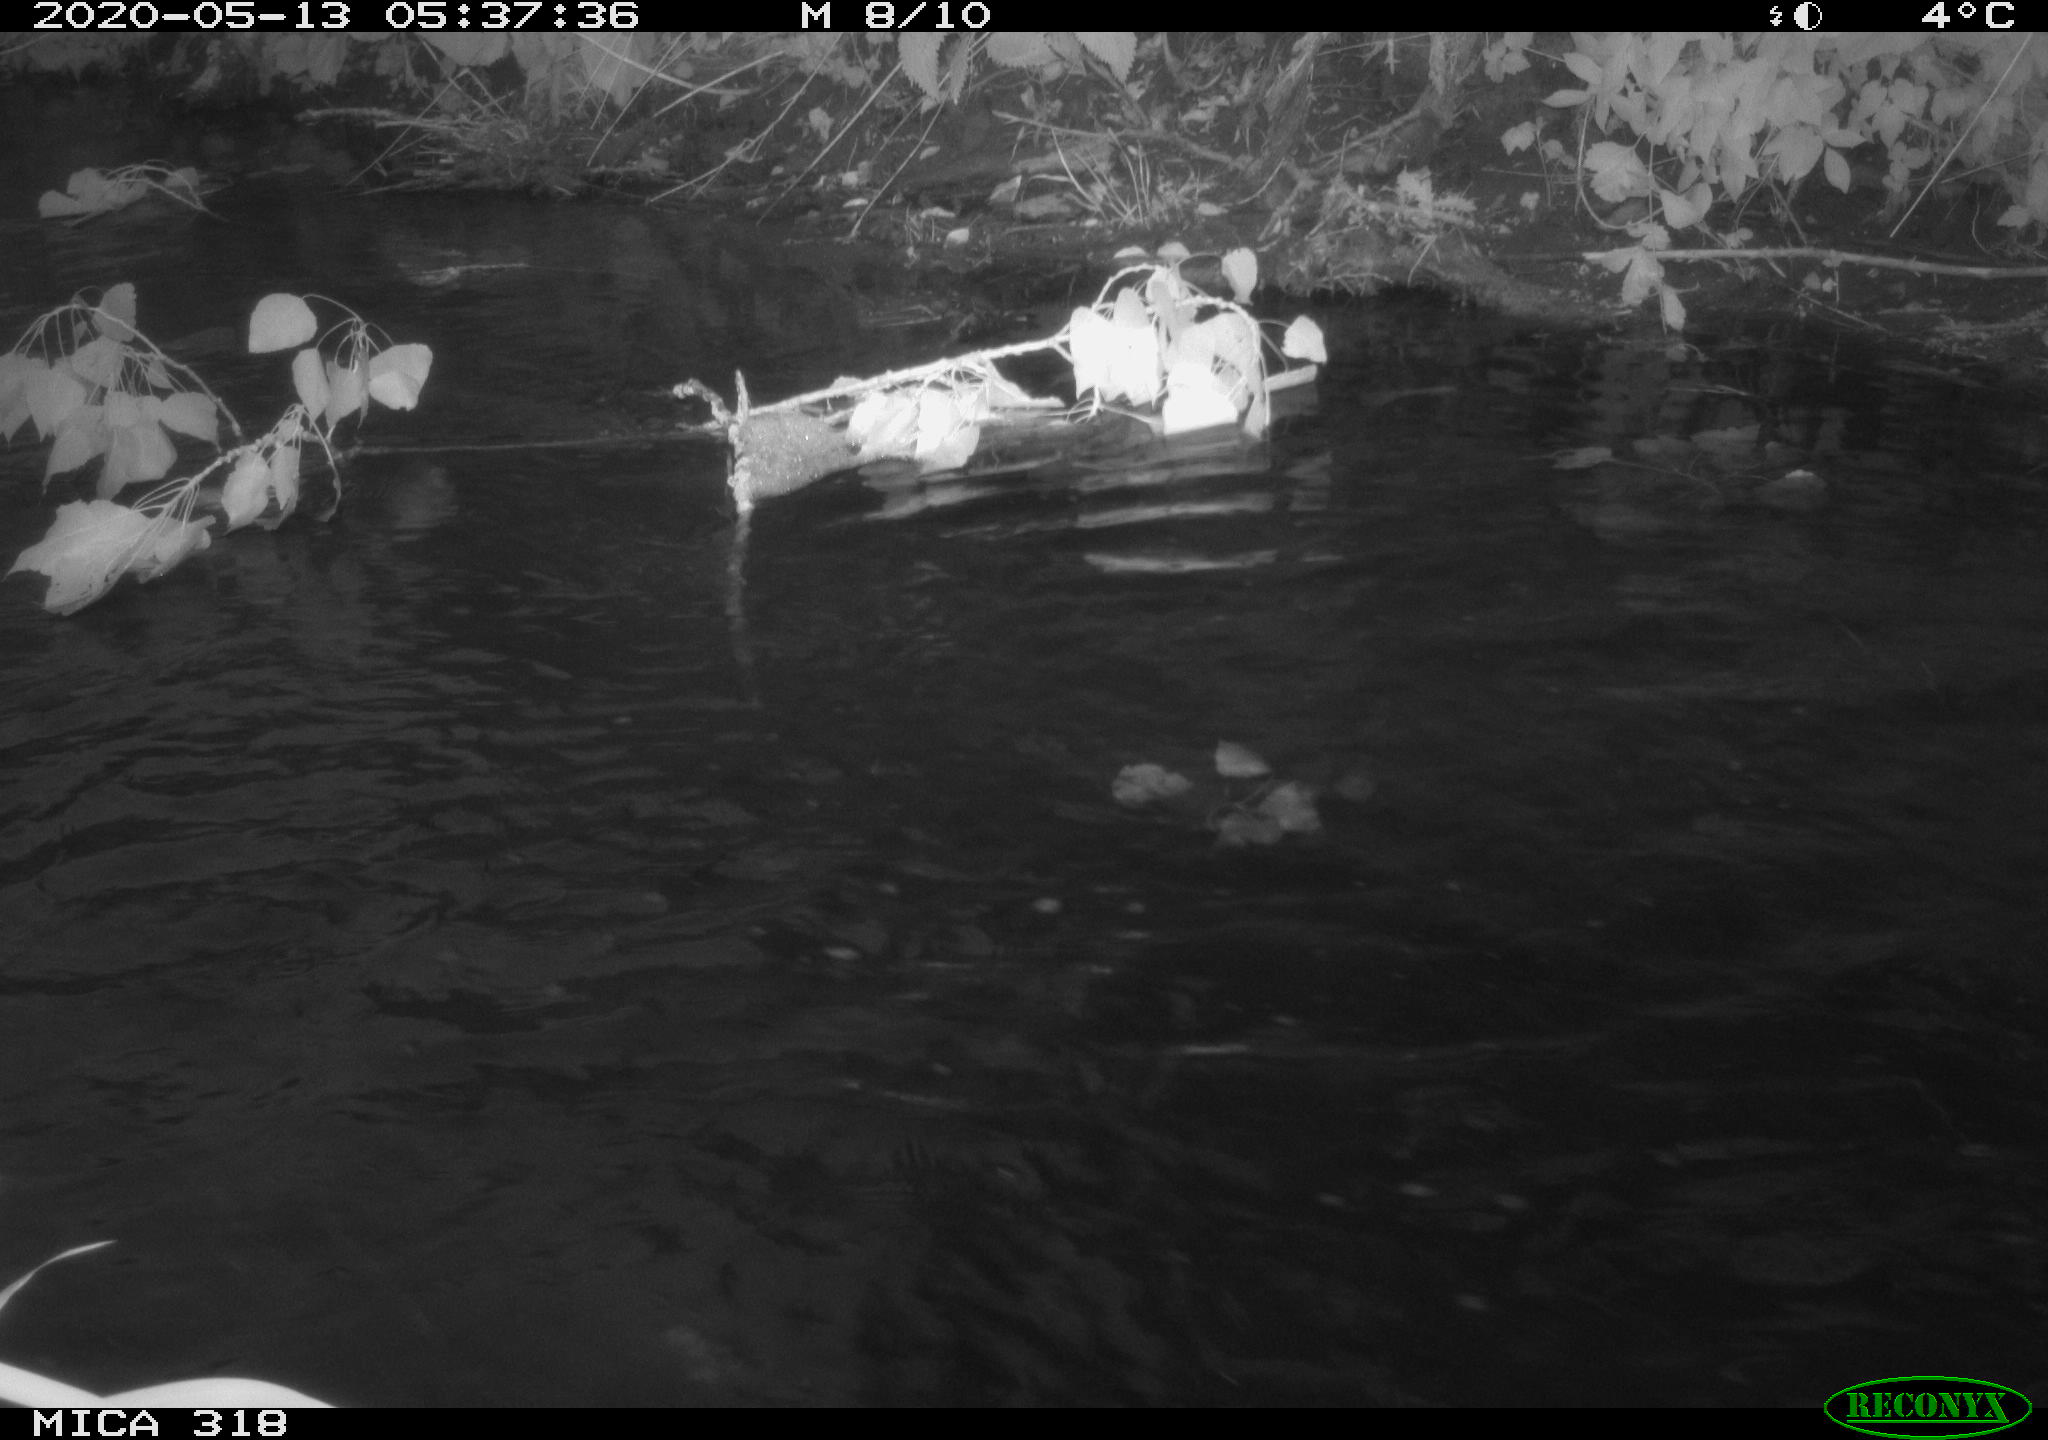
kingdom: Animalia
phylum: Chordata
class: Aves
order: Anseriformes
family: Anatidae
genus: Anas
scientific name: Anas platyrhynchos
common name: Mallard
